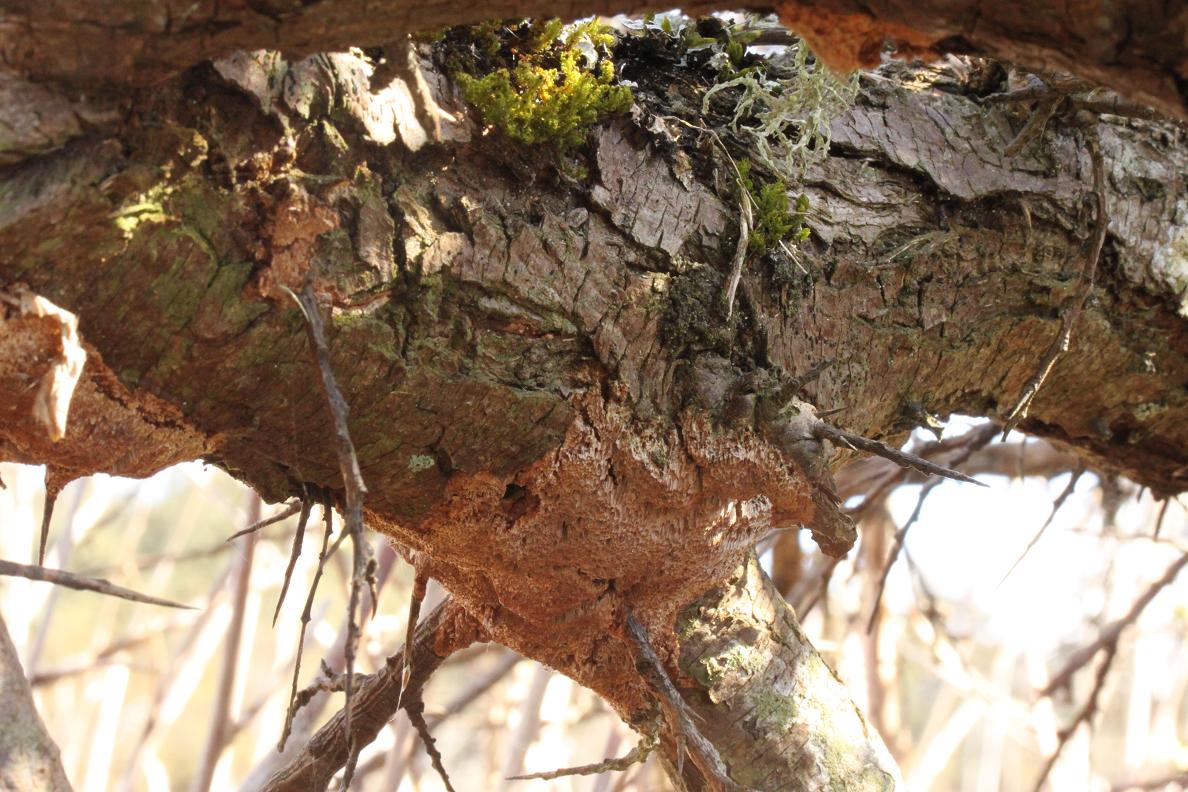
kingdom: Fungi
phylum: Basidiomycota
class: Agaricomycetes
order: Hymenochaetales
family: Hymenochaetaceae
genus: Fuscoporia
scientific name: Fuscoporia contigua
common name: grov ildporesvamp
